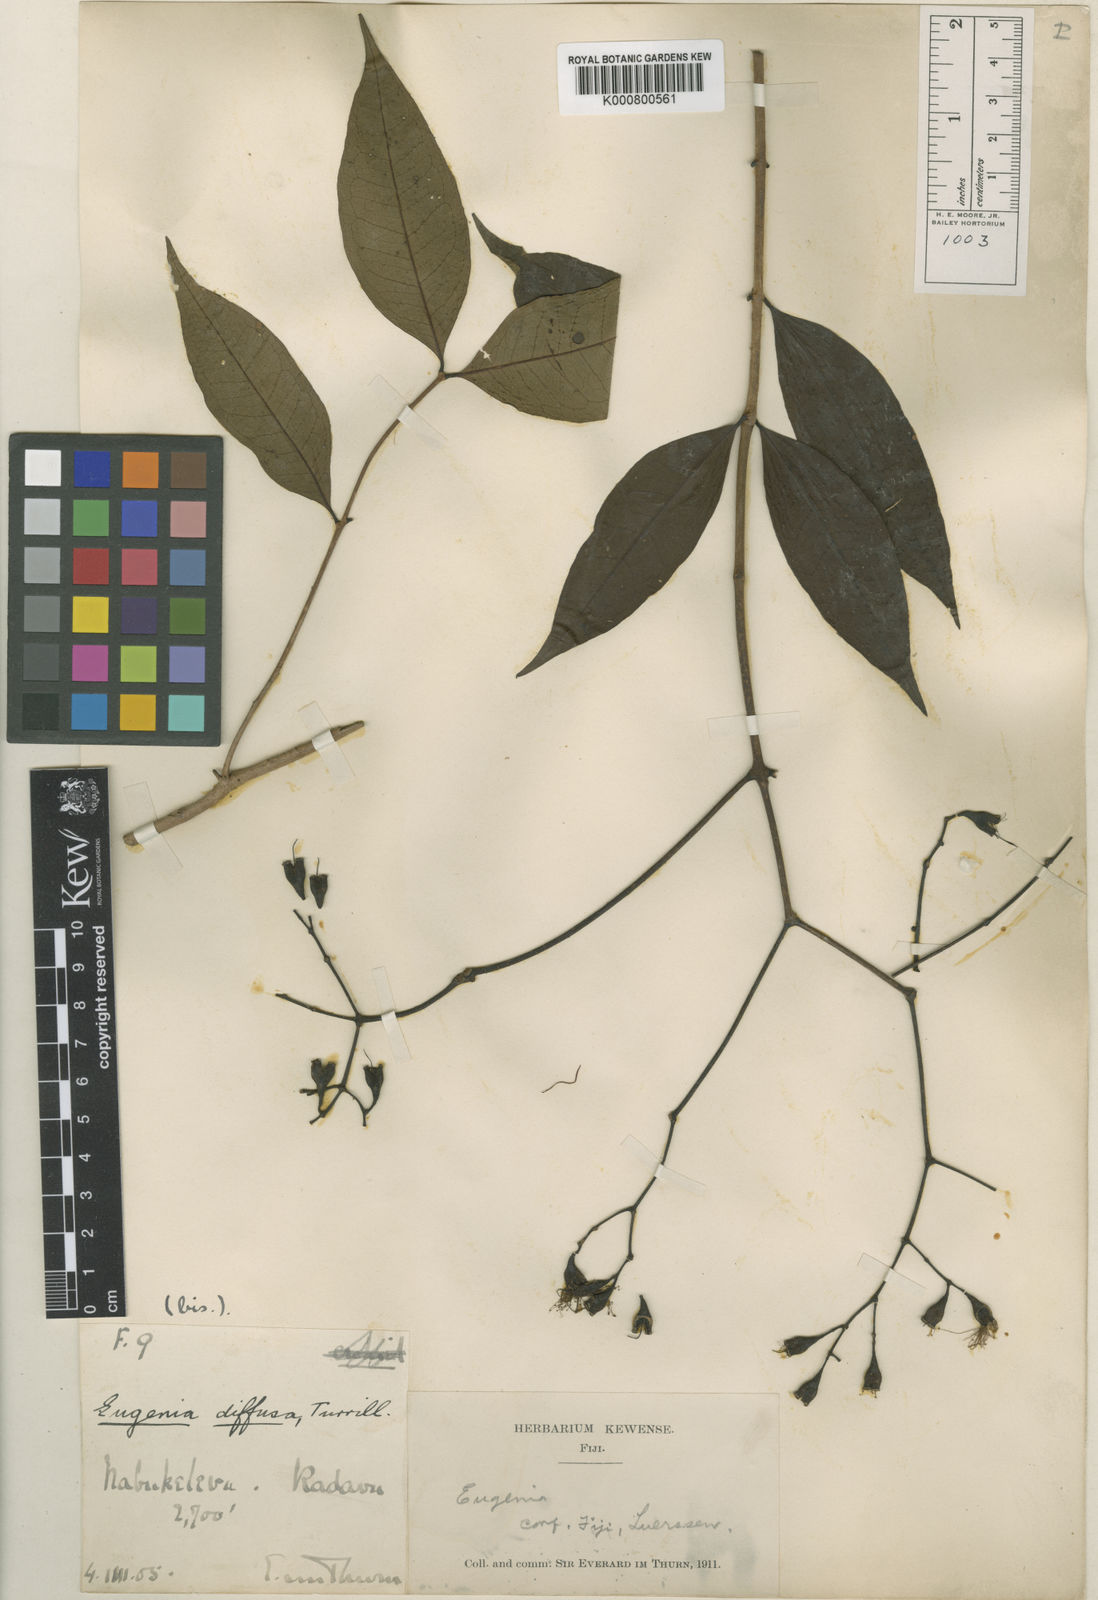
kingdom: Plantae
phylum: Tracheophyta
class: Magnoliopsida
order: Myrtales
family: Myrtaceae
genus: Syzygium
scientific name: Syzygium diffusum
